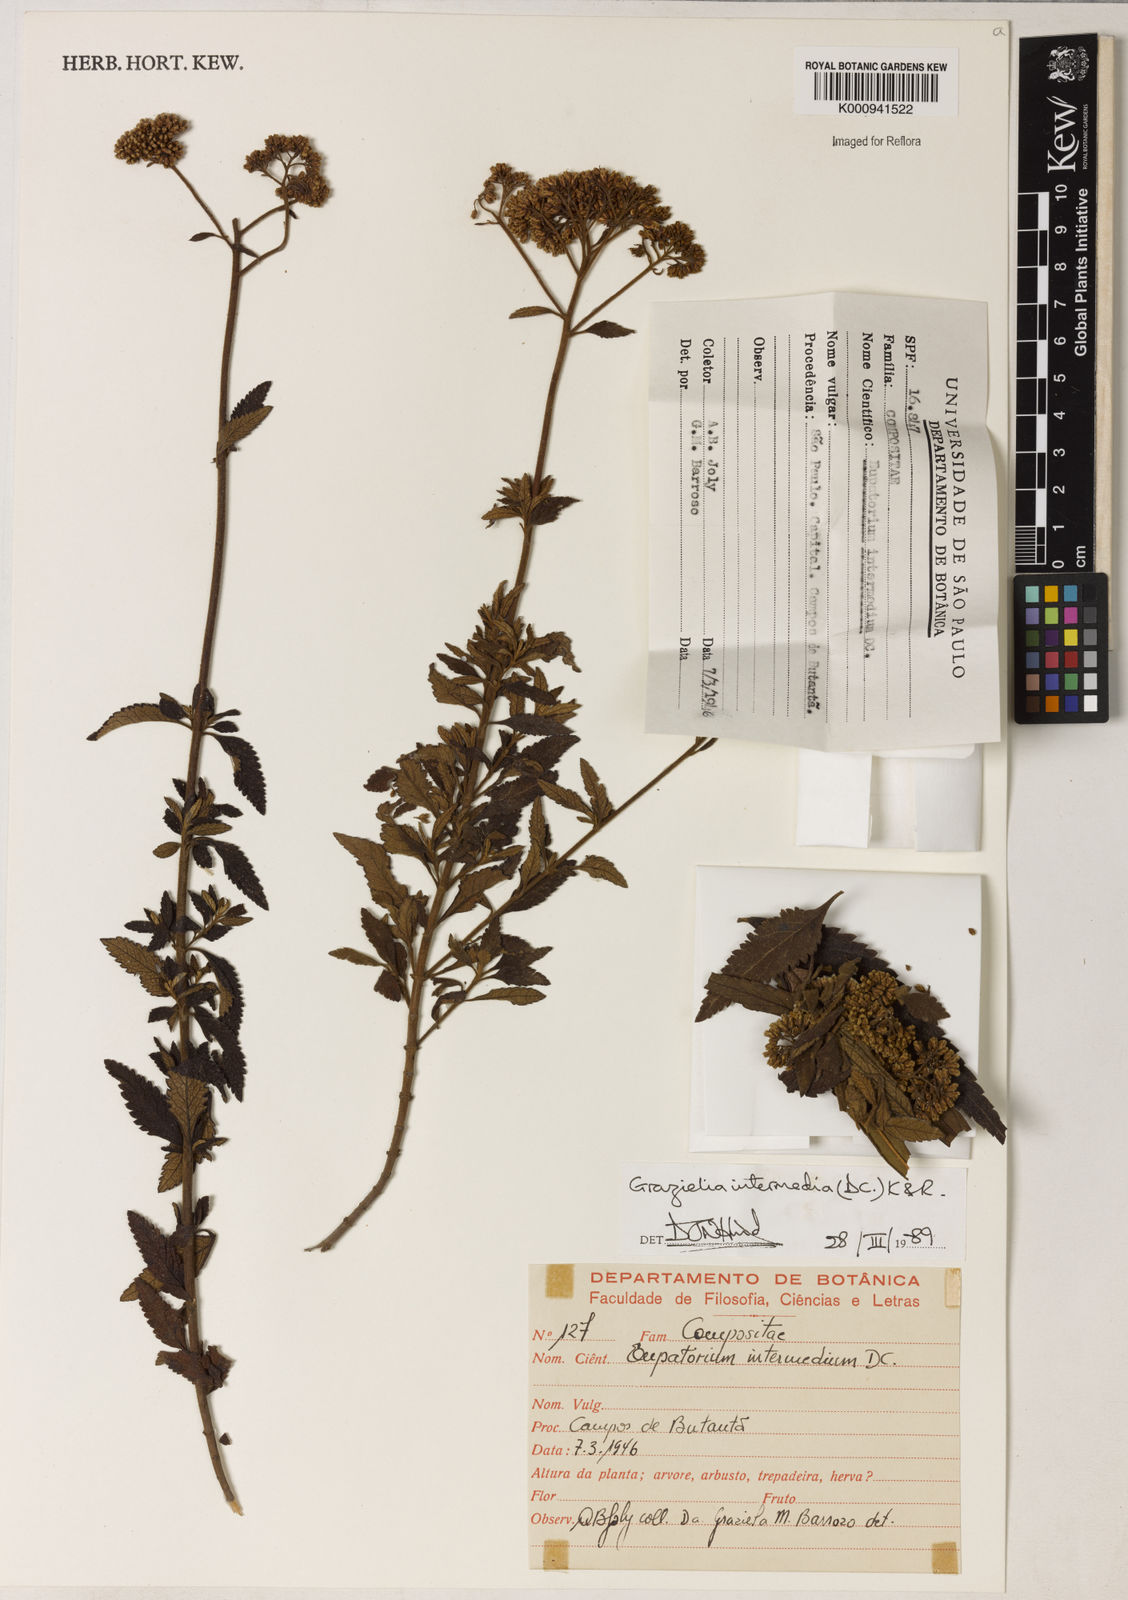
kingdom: Plantae
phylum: Tracheophyta
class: Magnoliopsida
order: Asterales
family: Asteraceae
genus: Grazielia
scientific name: Grazielia intermedia
